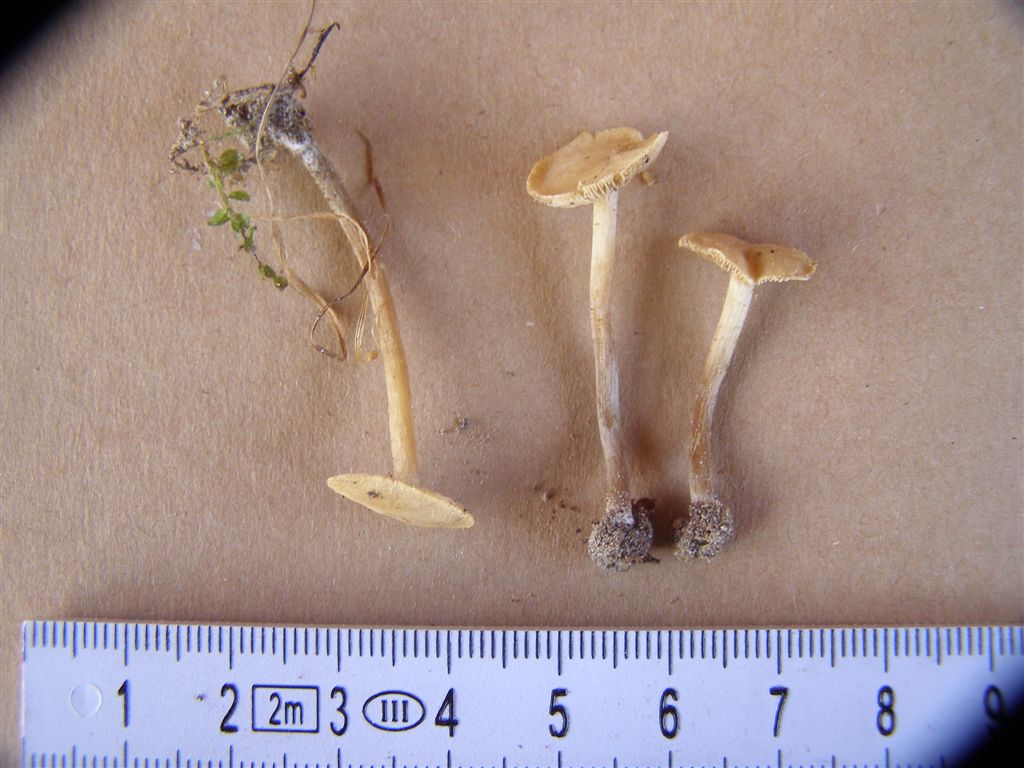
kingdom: Fungi
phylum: Basidiomycota
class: Agaricomycetes
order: Agaricales
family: Hymenogastraceae
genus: Naucoria
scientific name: Naucoria escharioides
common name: lys elle-knaphat
